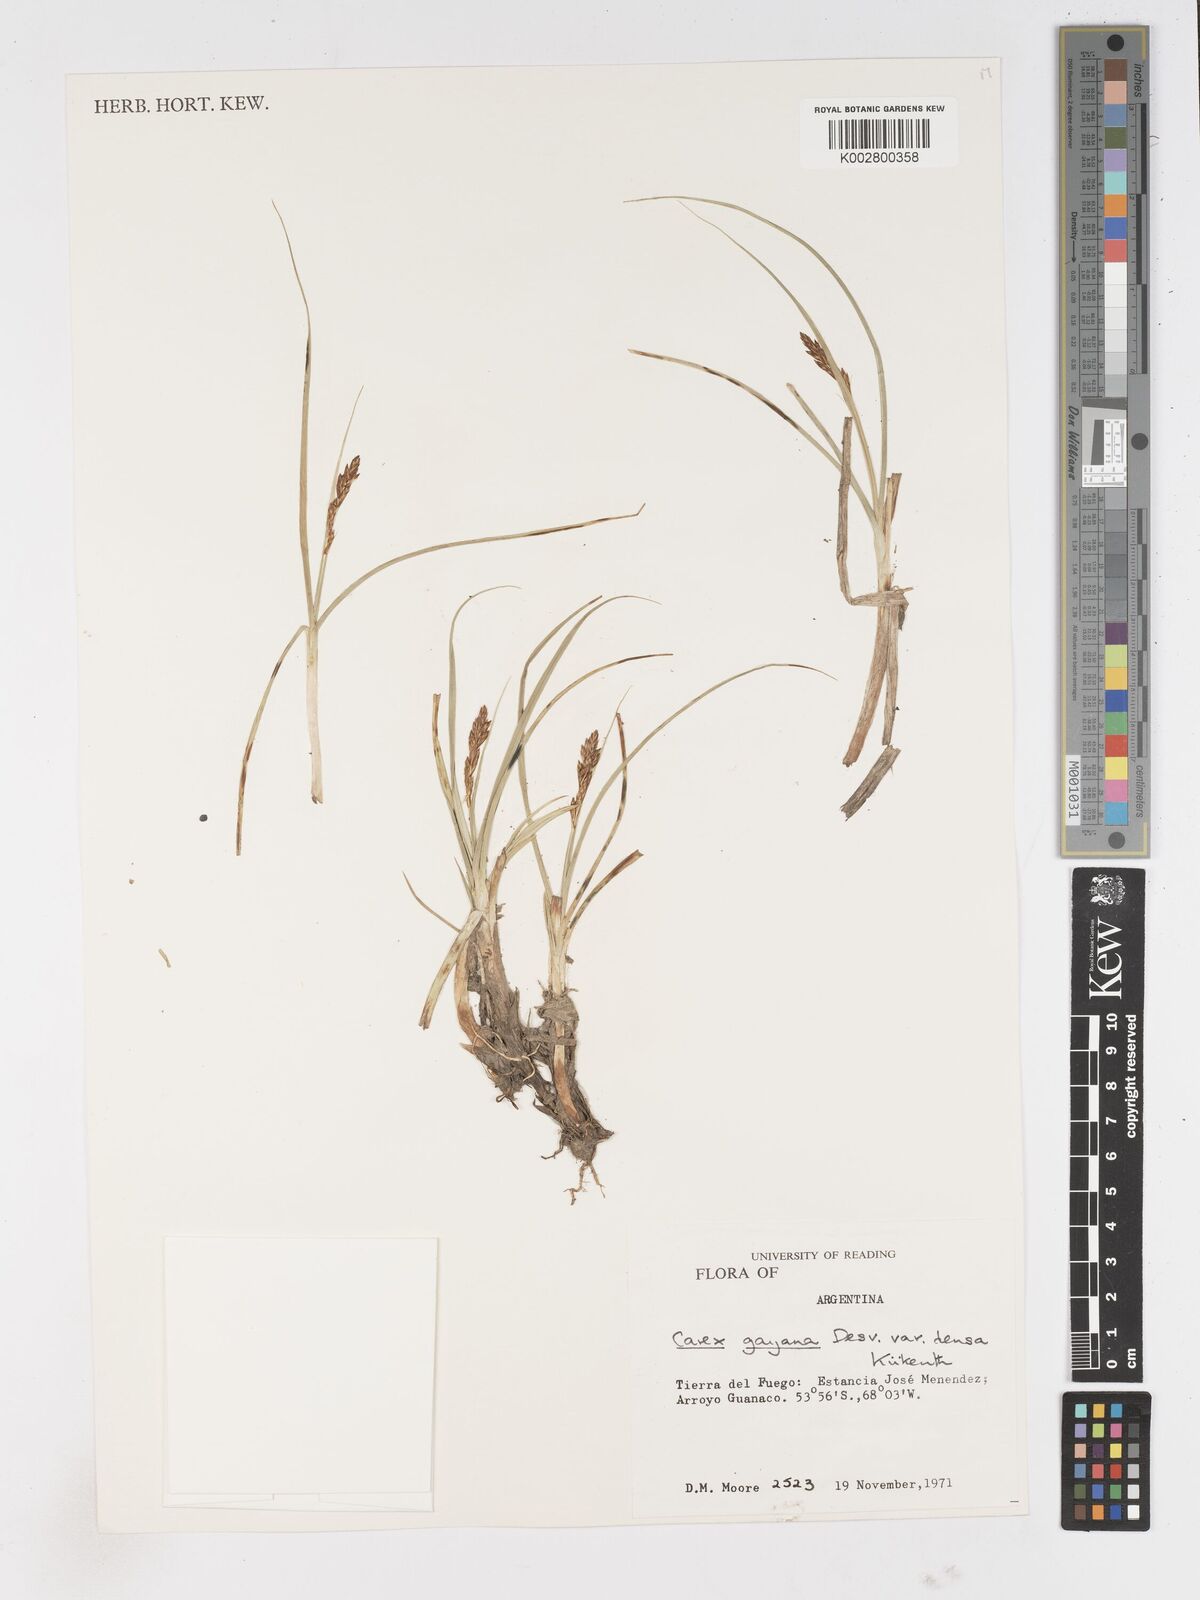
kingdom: Plantae
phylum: Tracheophyta
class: Liliopsida
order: Poales
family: Cyperaceae
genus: Carex
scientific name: Carex gayana
